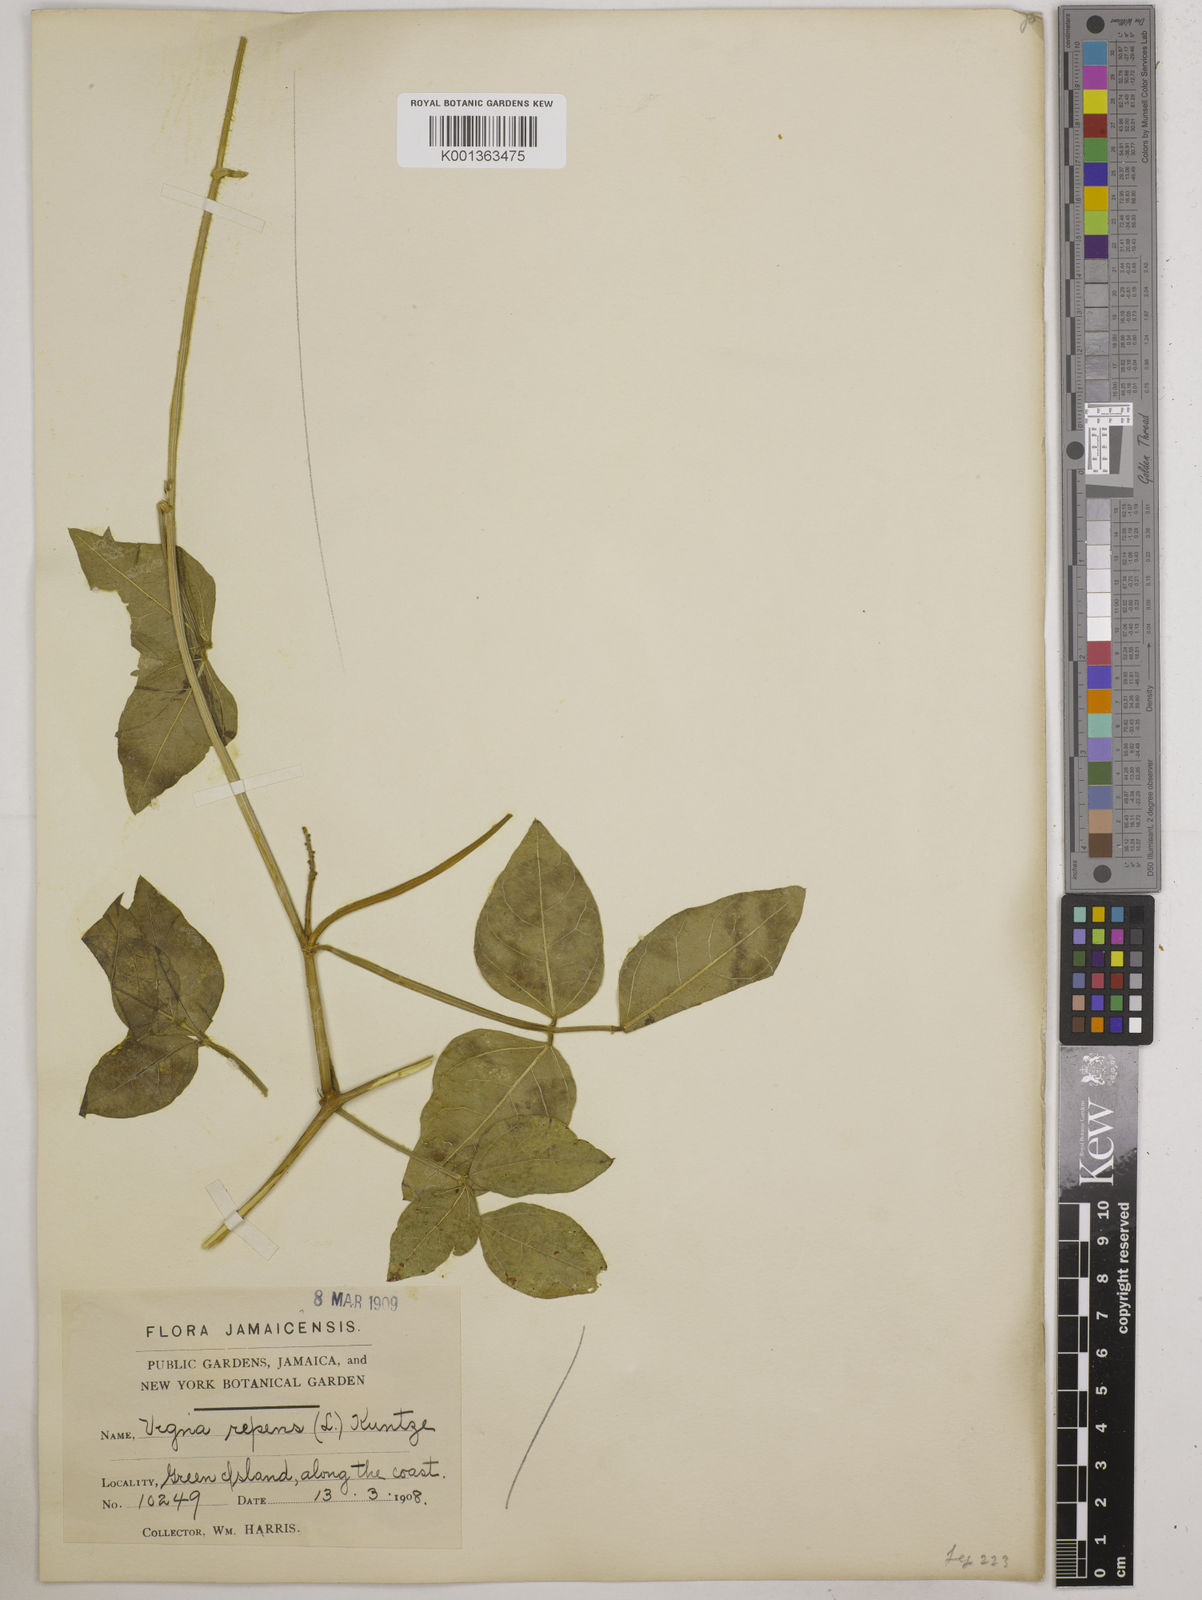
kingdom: Plantae
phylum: Tracheophyta
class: Magnoliopsida
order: Fabales
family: Fabaceae
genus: Vigna
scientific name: Vigna luteola
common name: Hairypod cowpea
